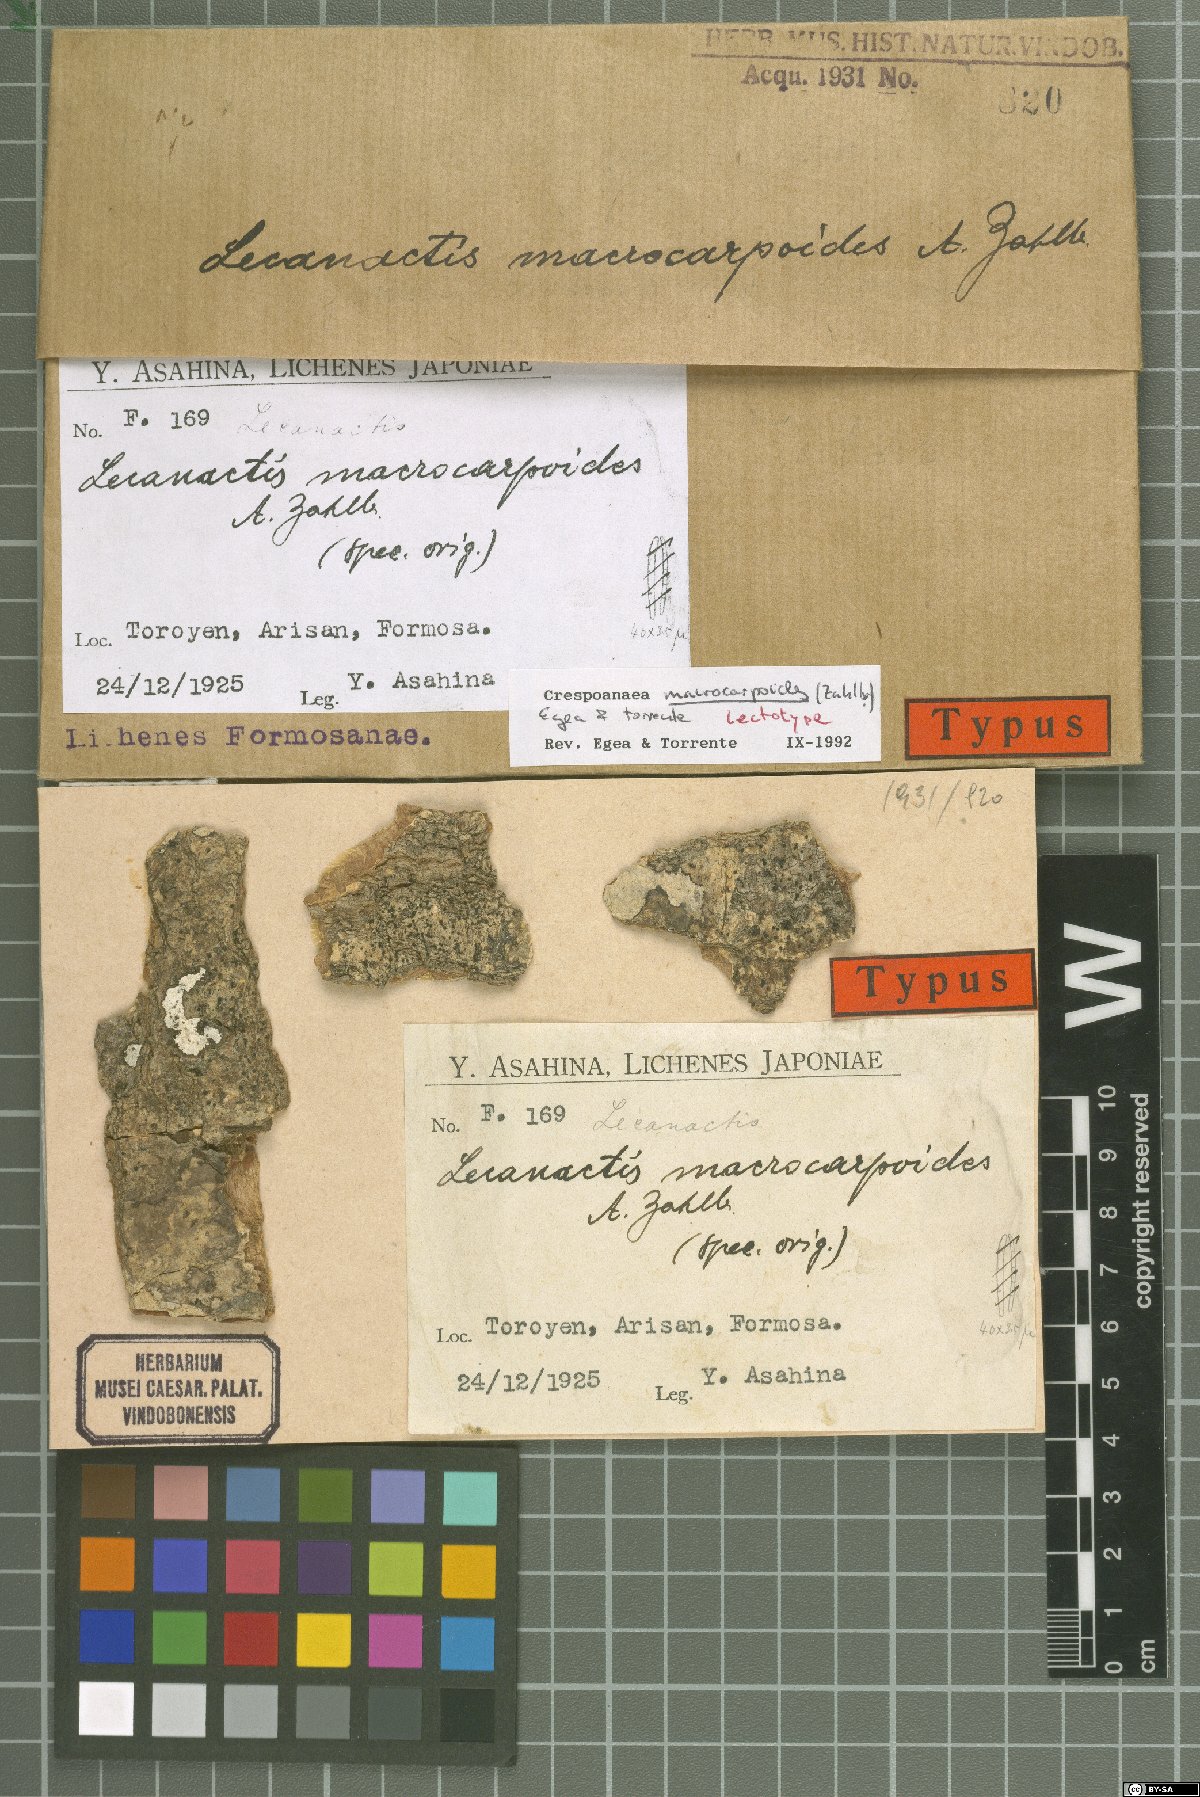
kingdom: Fungi
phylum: Ascomycota
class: Arthoniomycetes
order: Arthoniales
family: Opegraphaceae
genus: Cresponea
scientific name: Cresponea macrocarpoides
